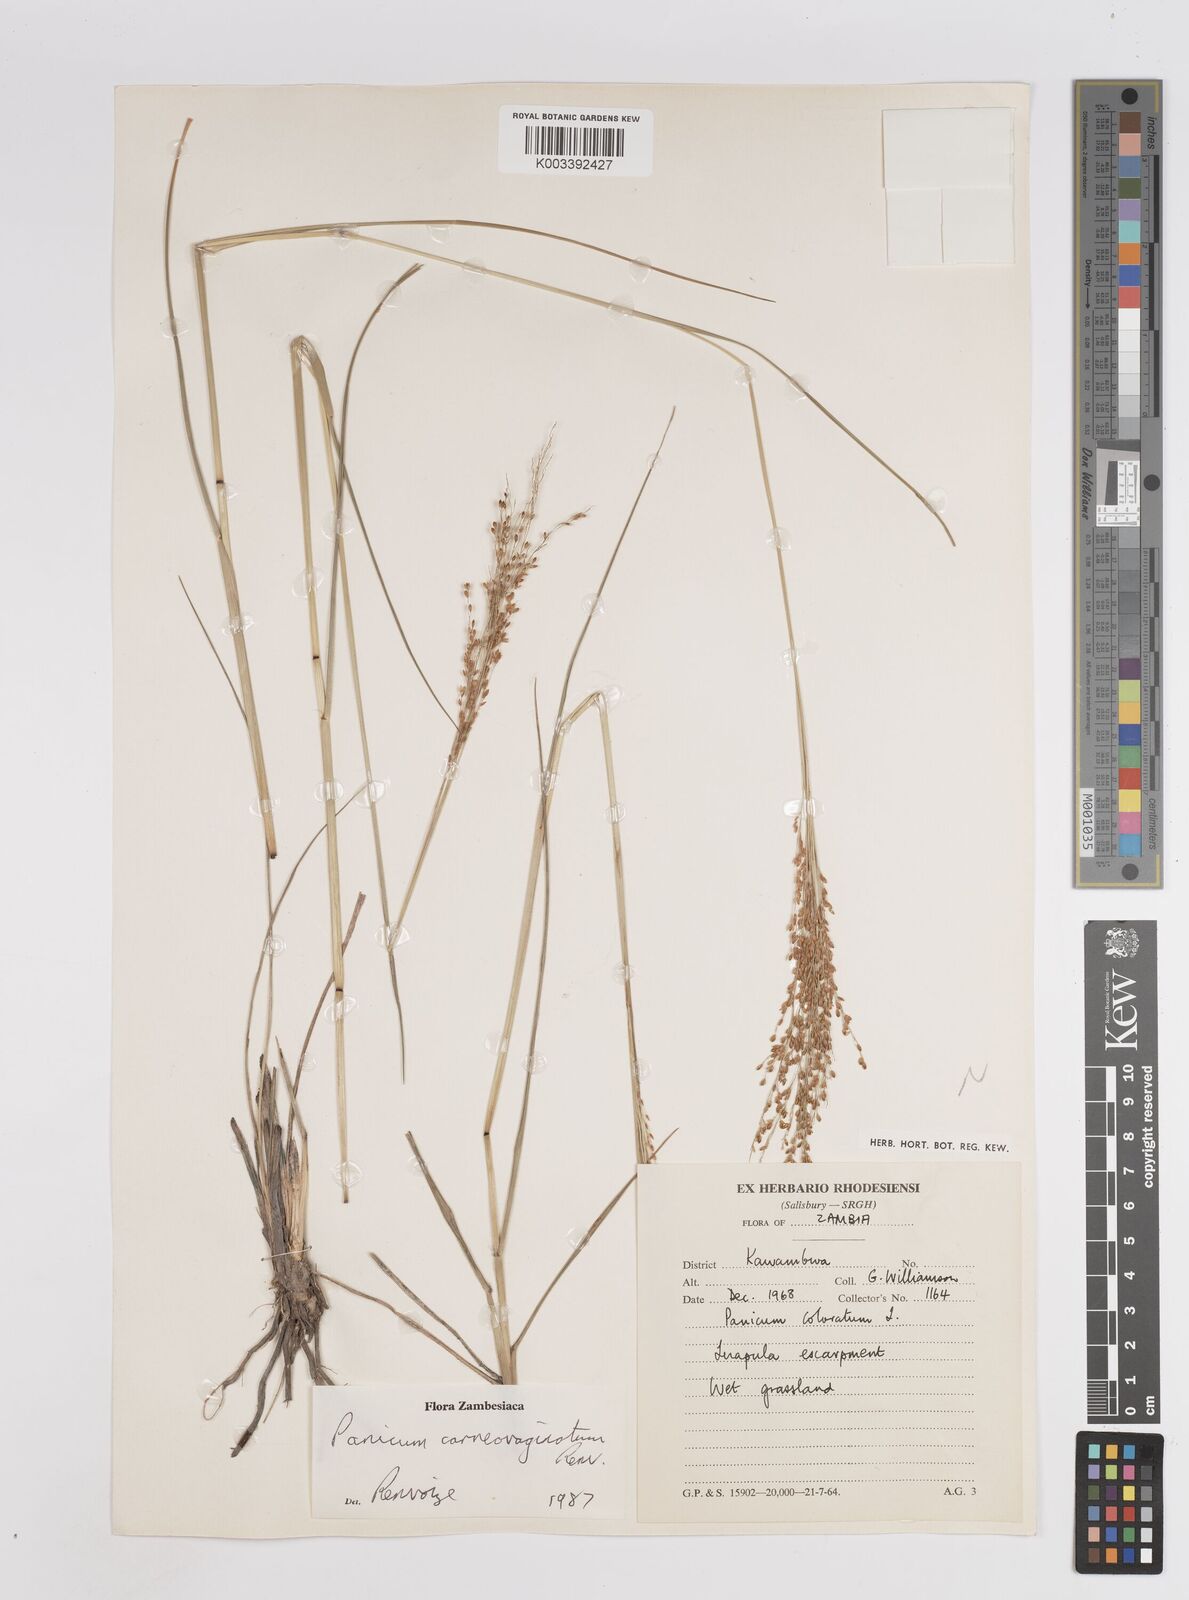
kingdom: Plantae
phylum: Tracheophyta
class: Liliopsida
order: Poales
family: Poaceae
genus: Panicum
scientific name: Panicum carneovaginatum
